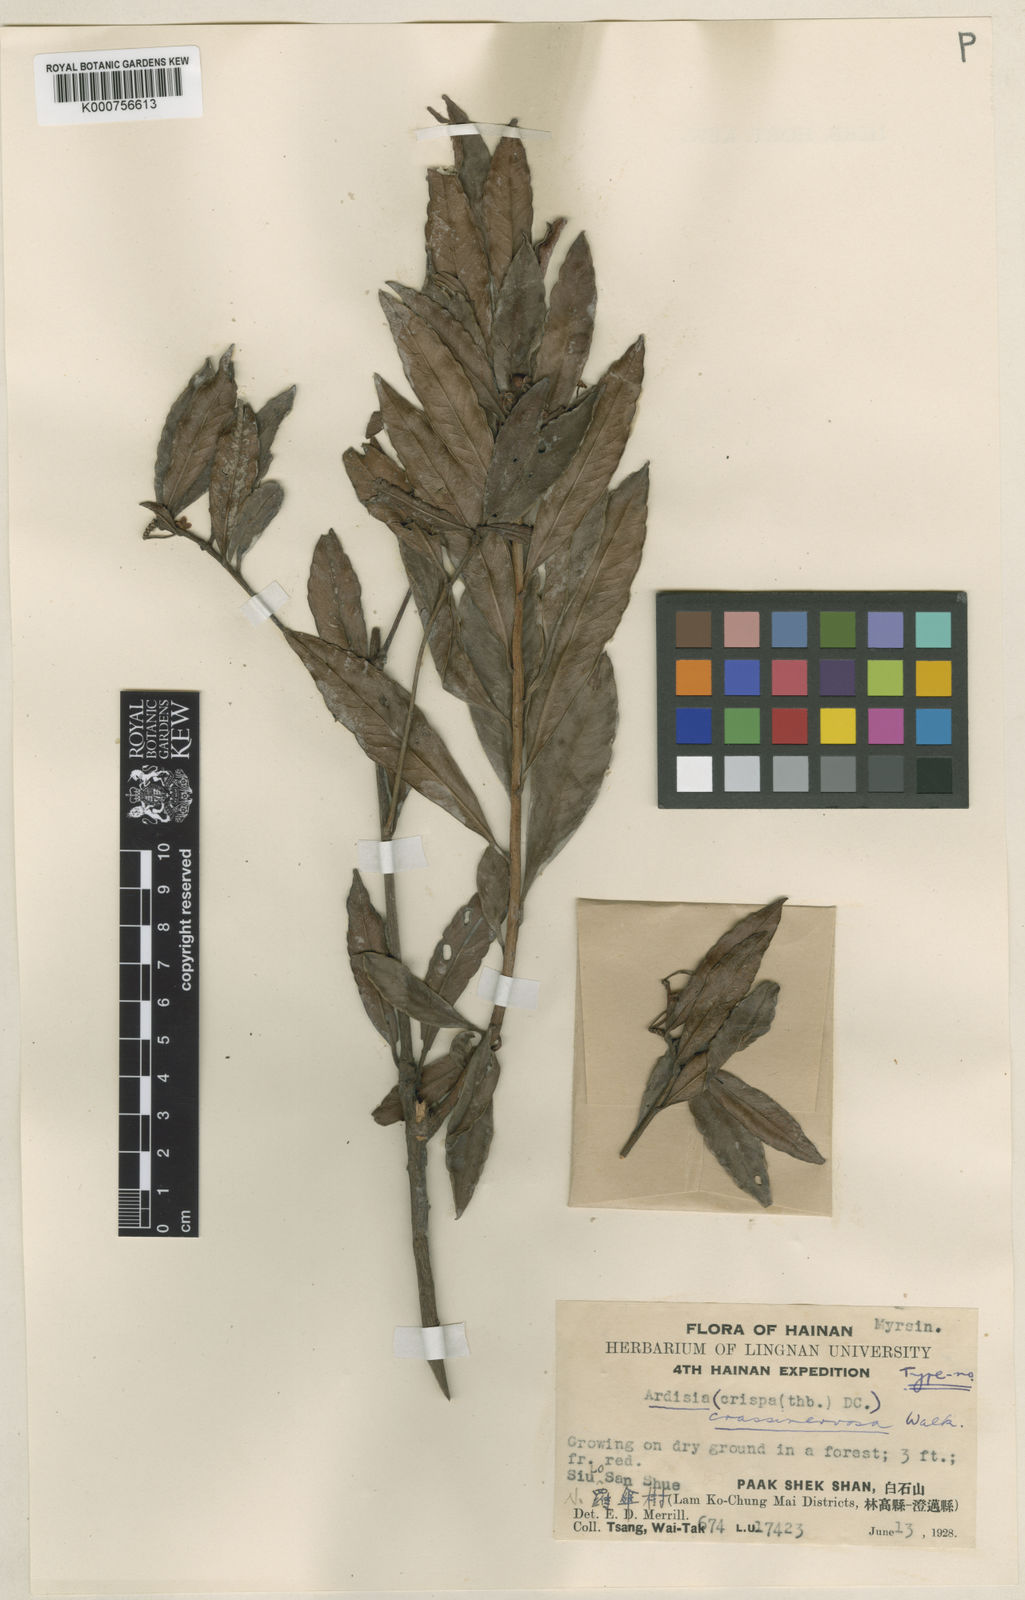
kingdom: Plantae
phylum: Tracheophyta
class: Magnoliopsida
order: Ericales
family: Primulaceae
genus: Ardisia
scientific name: Ardisia crenata
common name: Hen's eyes
